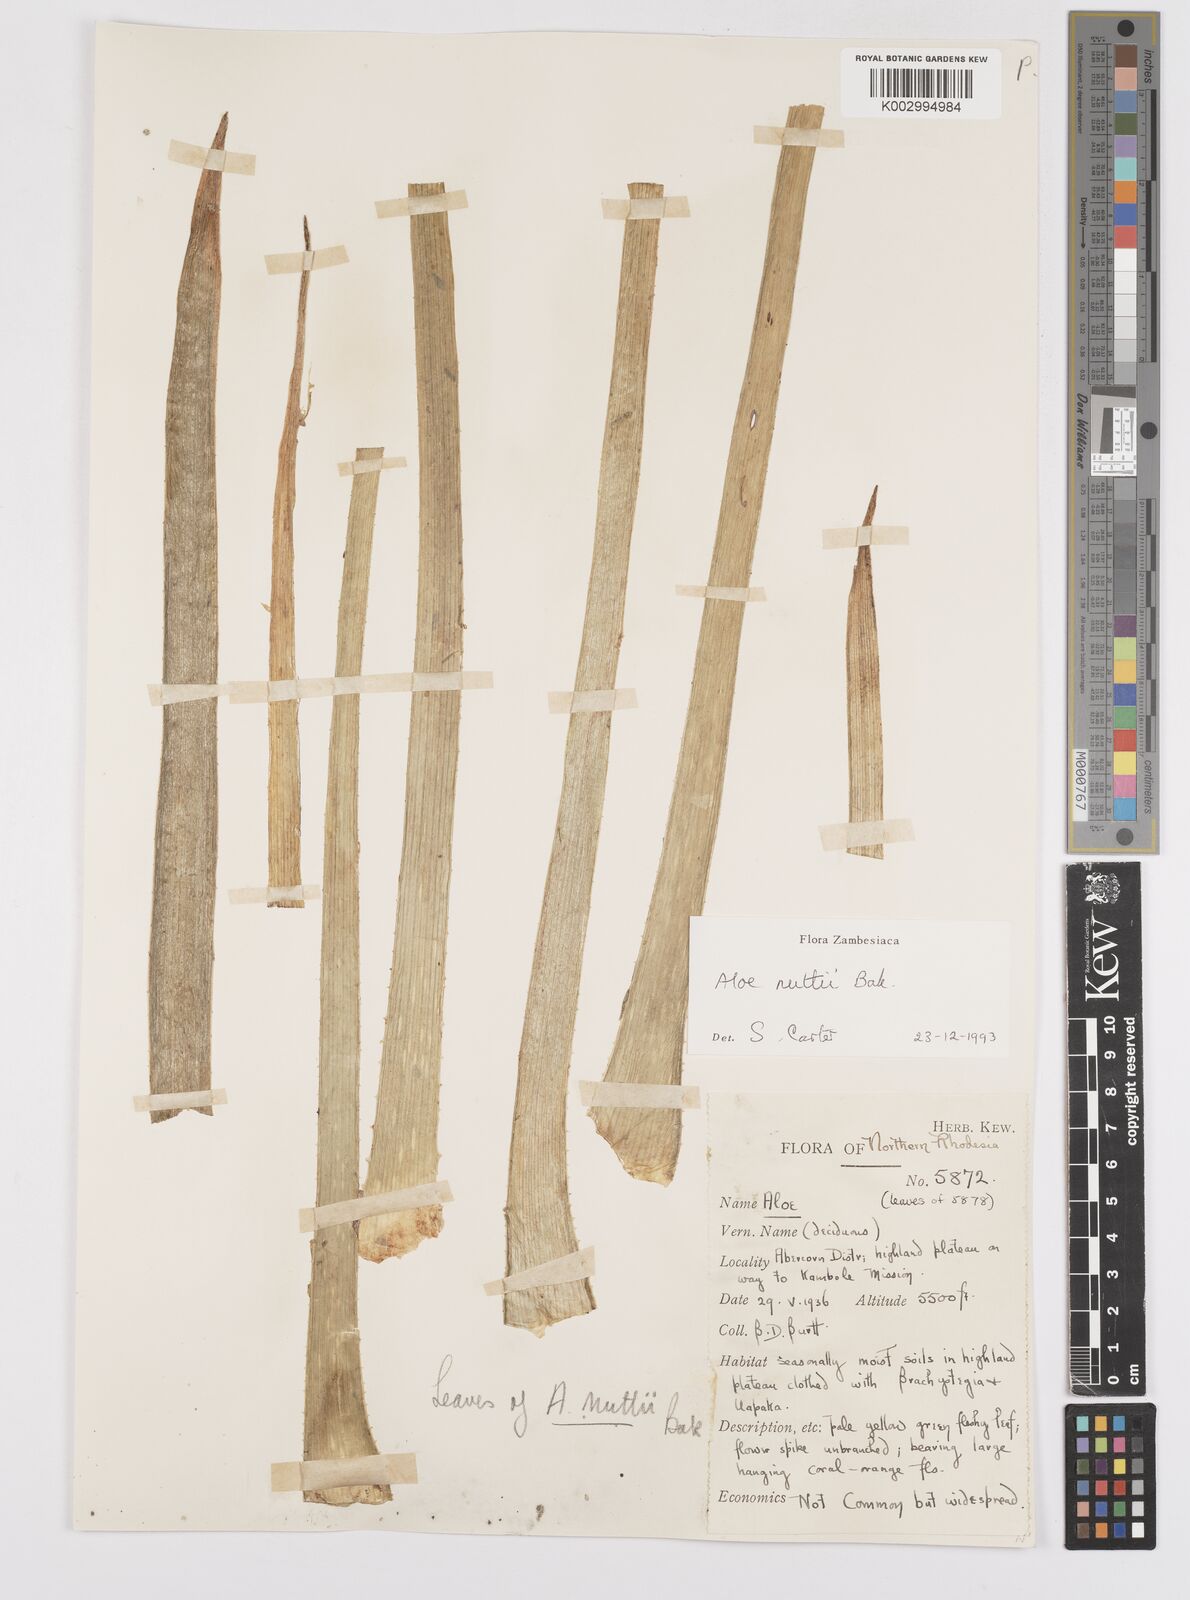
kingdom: Plantae
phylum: Tracheophyta
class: Liliopsida
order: Asparagales
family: Asphodelaceae
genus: Aloe
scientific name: Aloe nuttii
